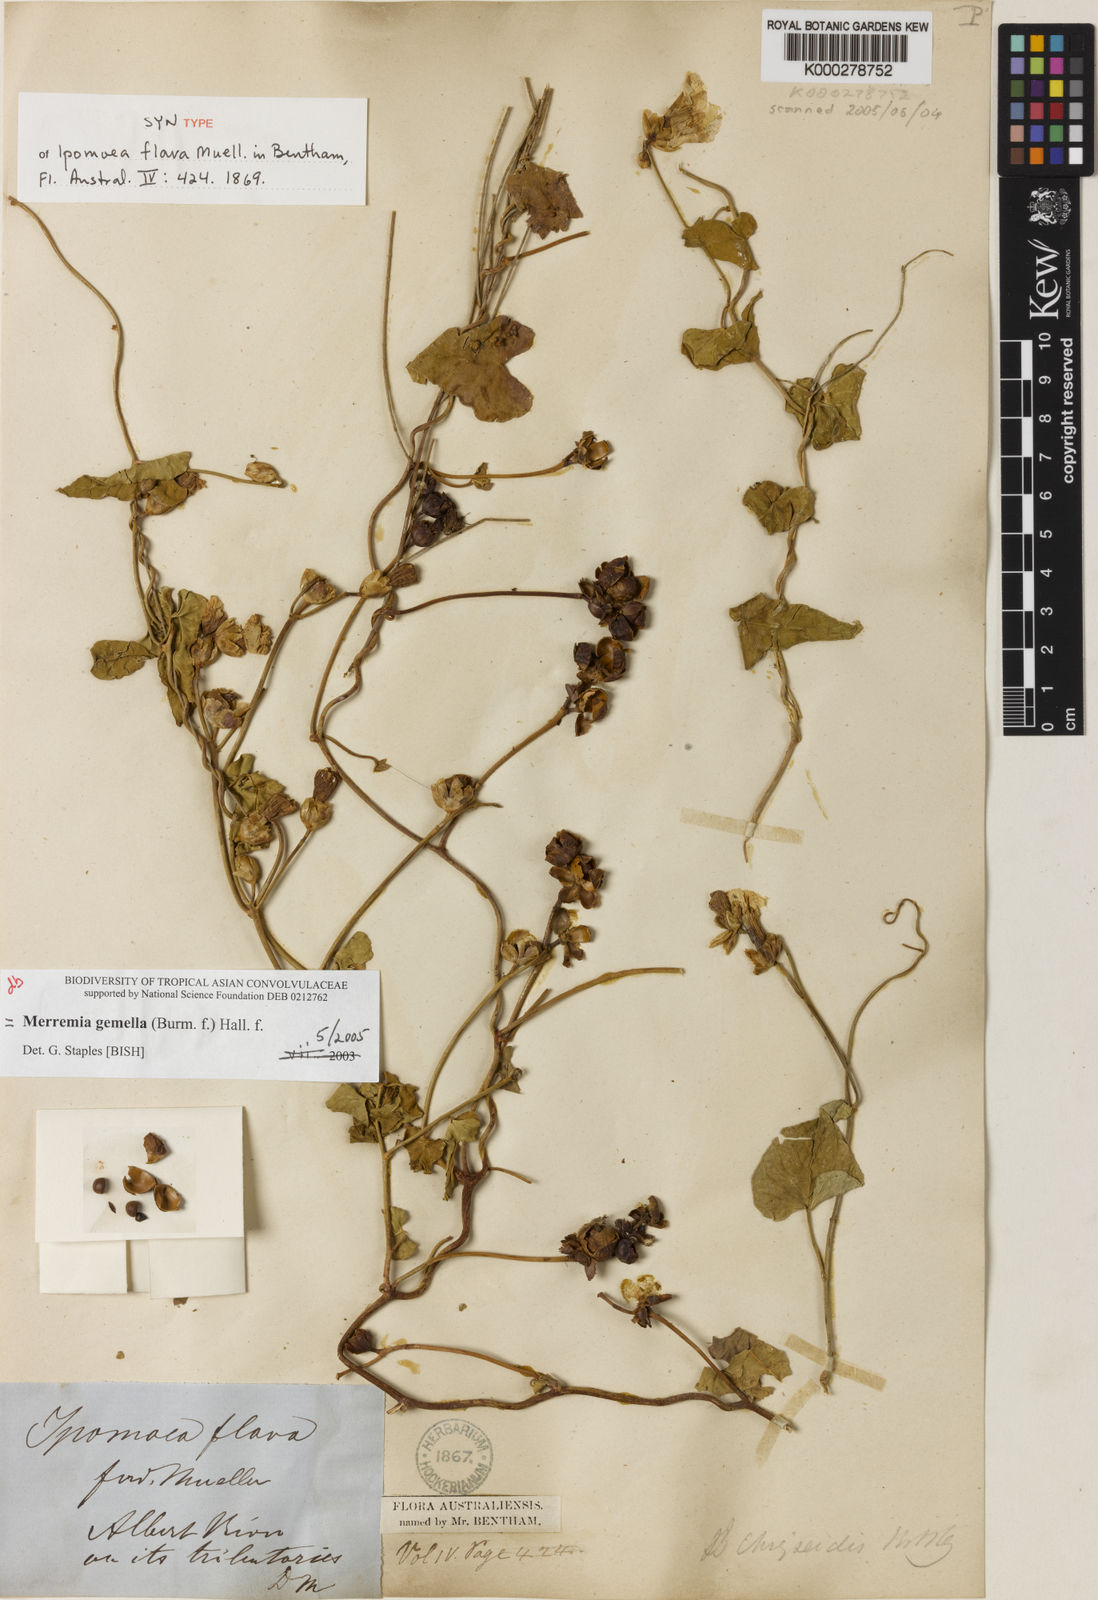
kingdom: Plantae
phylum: Tracheophyta
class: Magnoliopsida
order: Solanales
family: Convolvulaceae
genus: Merremia
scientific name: Merremia gemella
